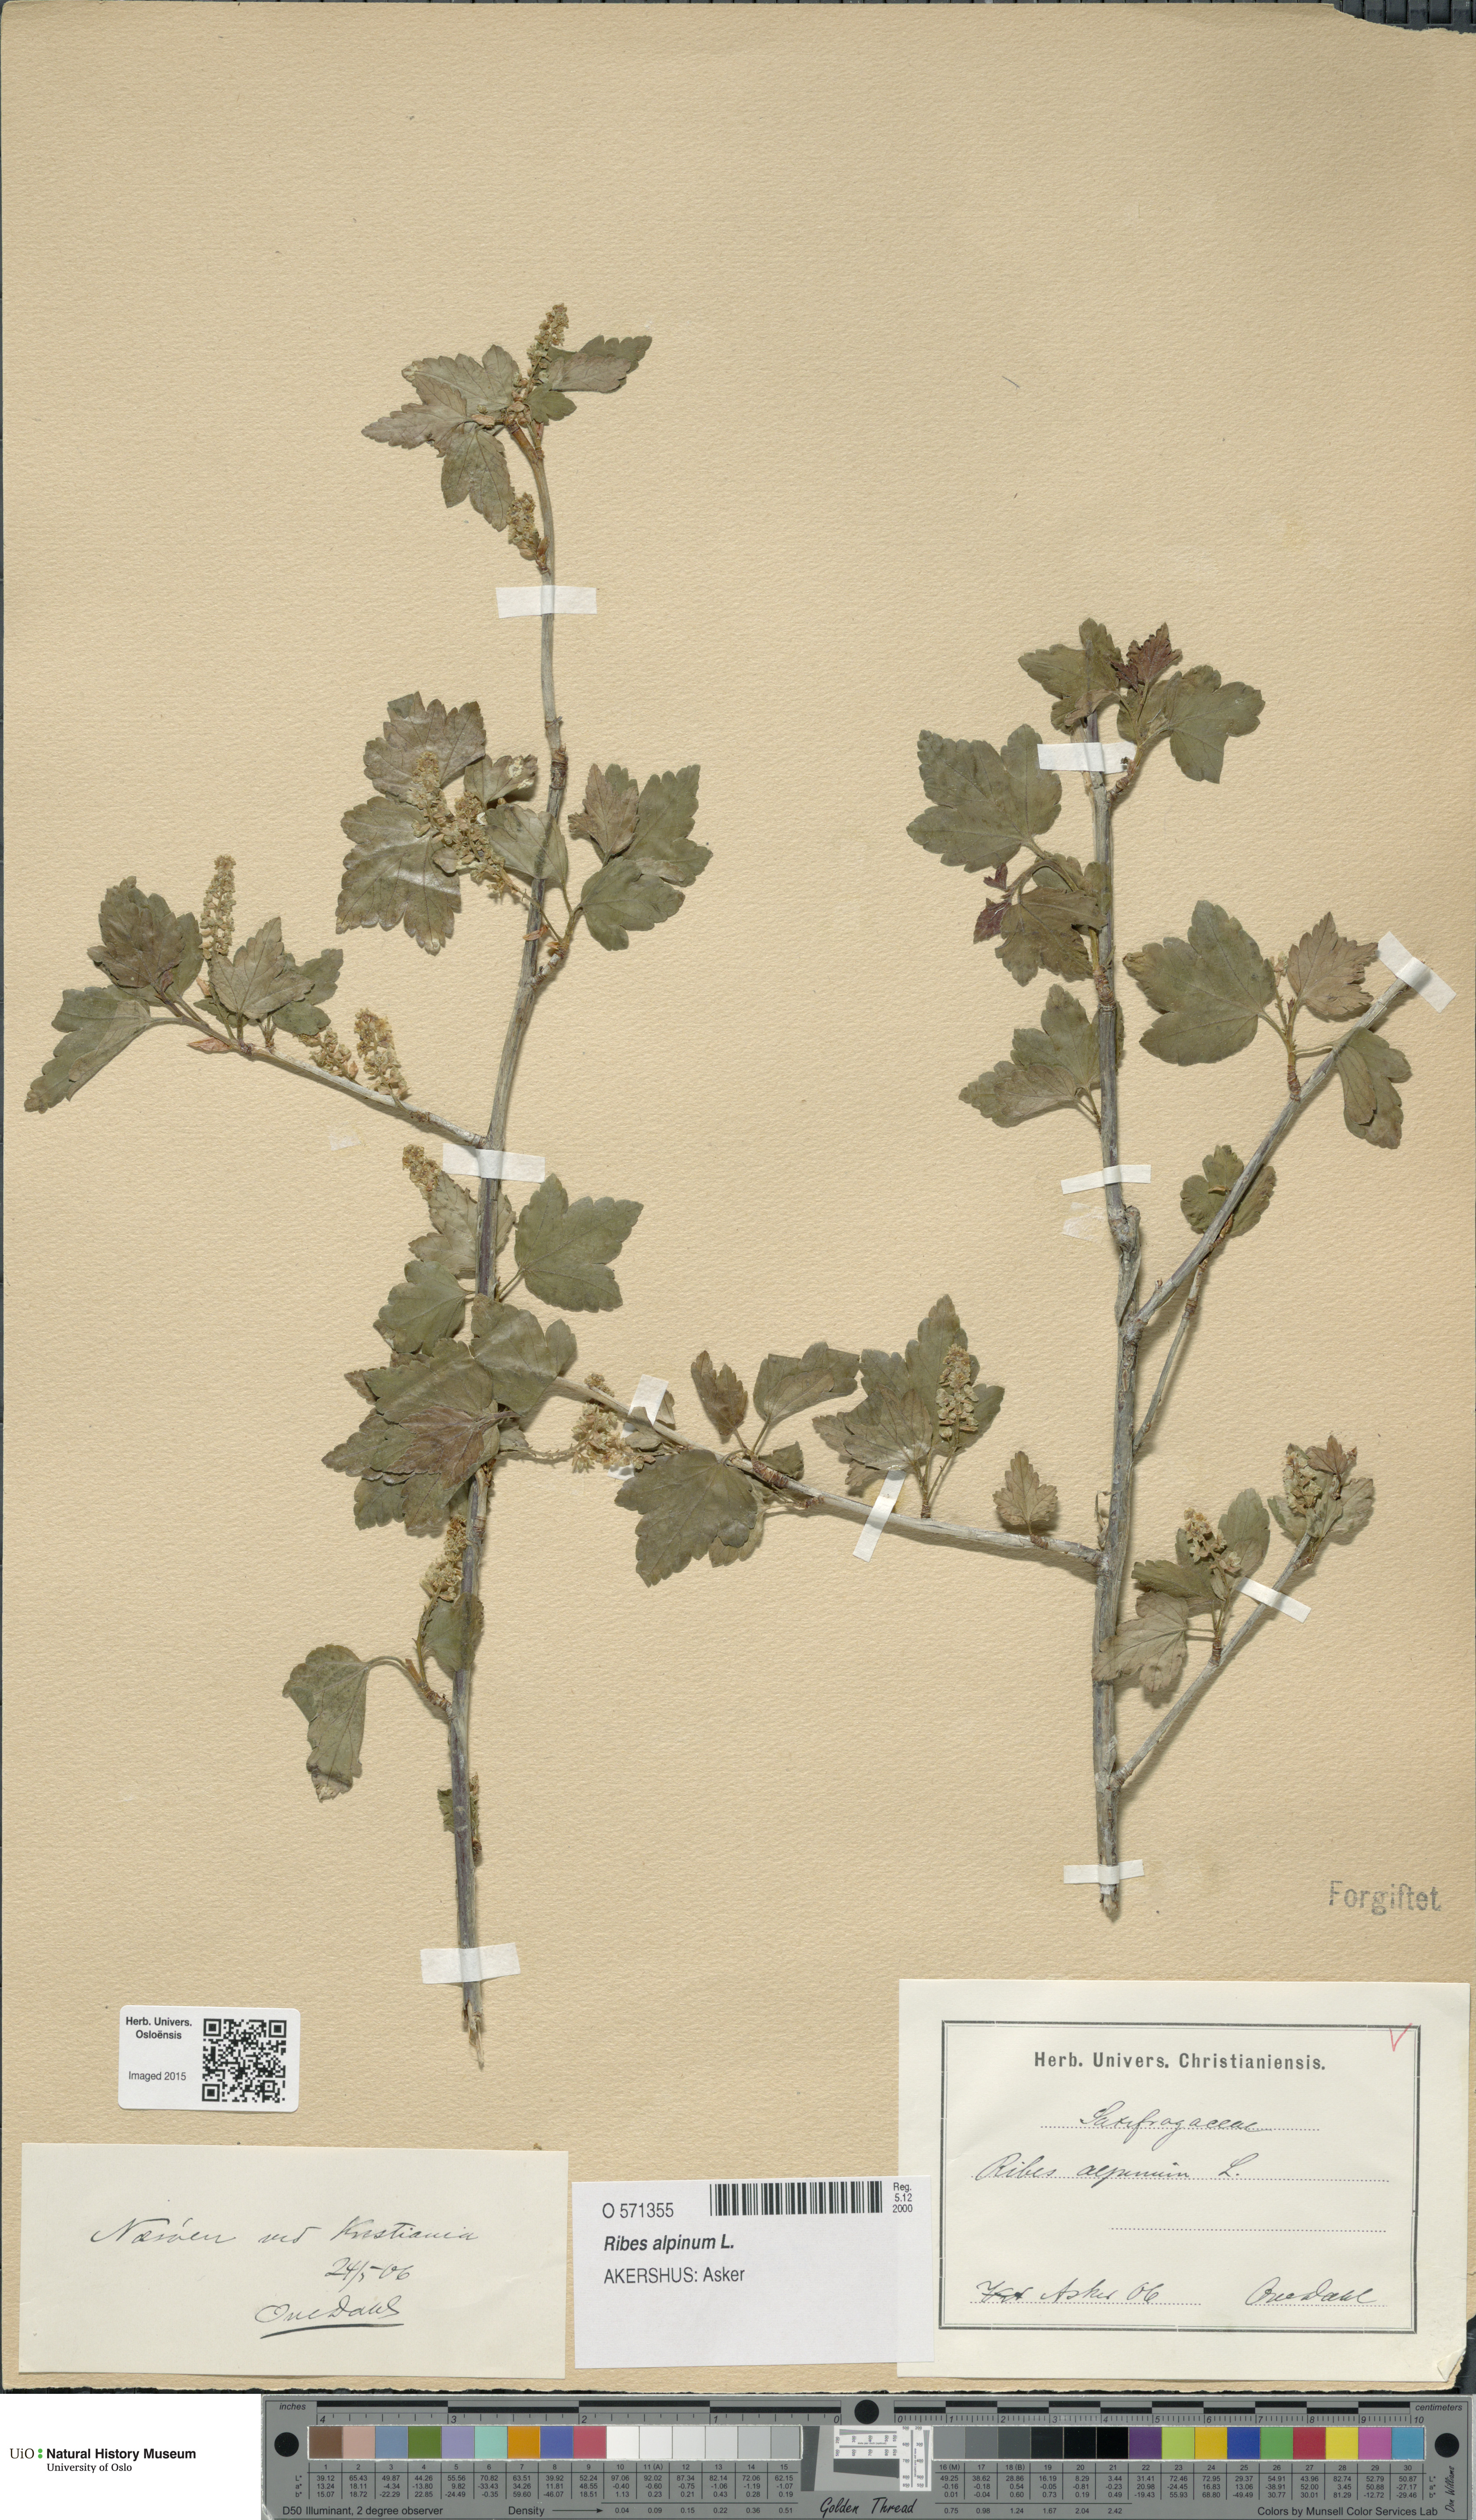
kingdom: Plantae
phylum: Tracheophyta
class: Magnoliopsida
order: Saxifragales
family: Grossulariaceae
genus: Ribes
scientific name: Ribes alpinum
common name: Alpine currant
